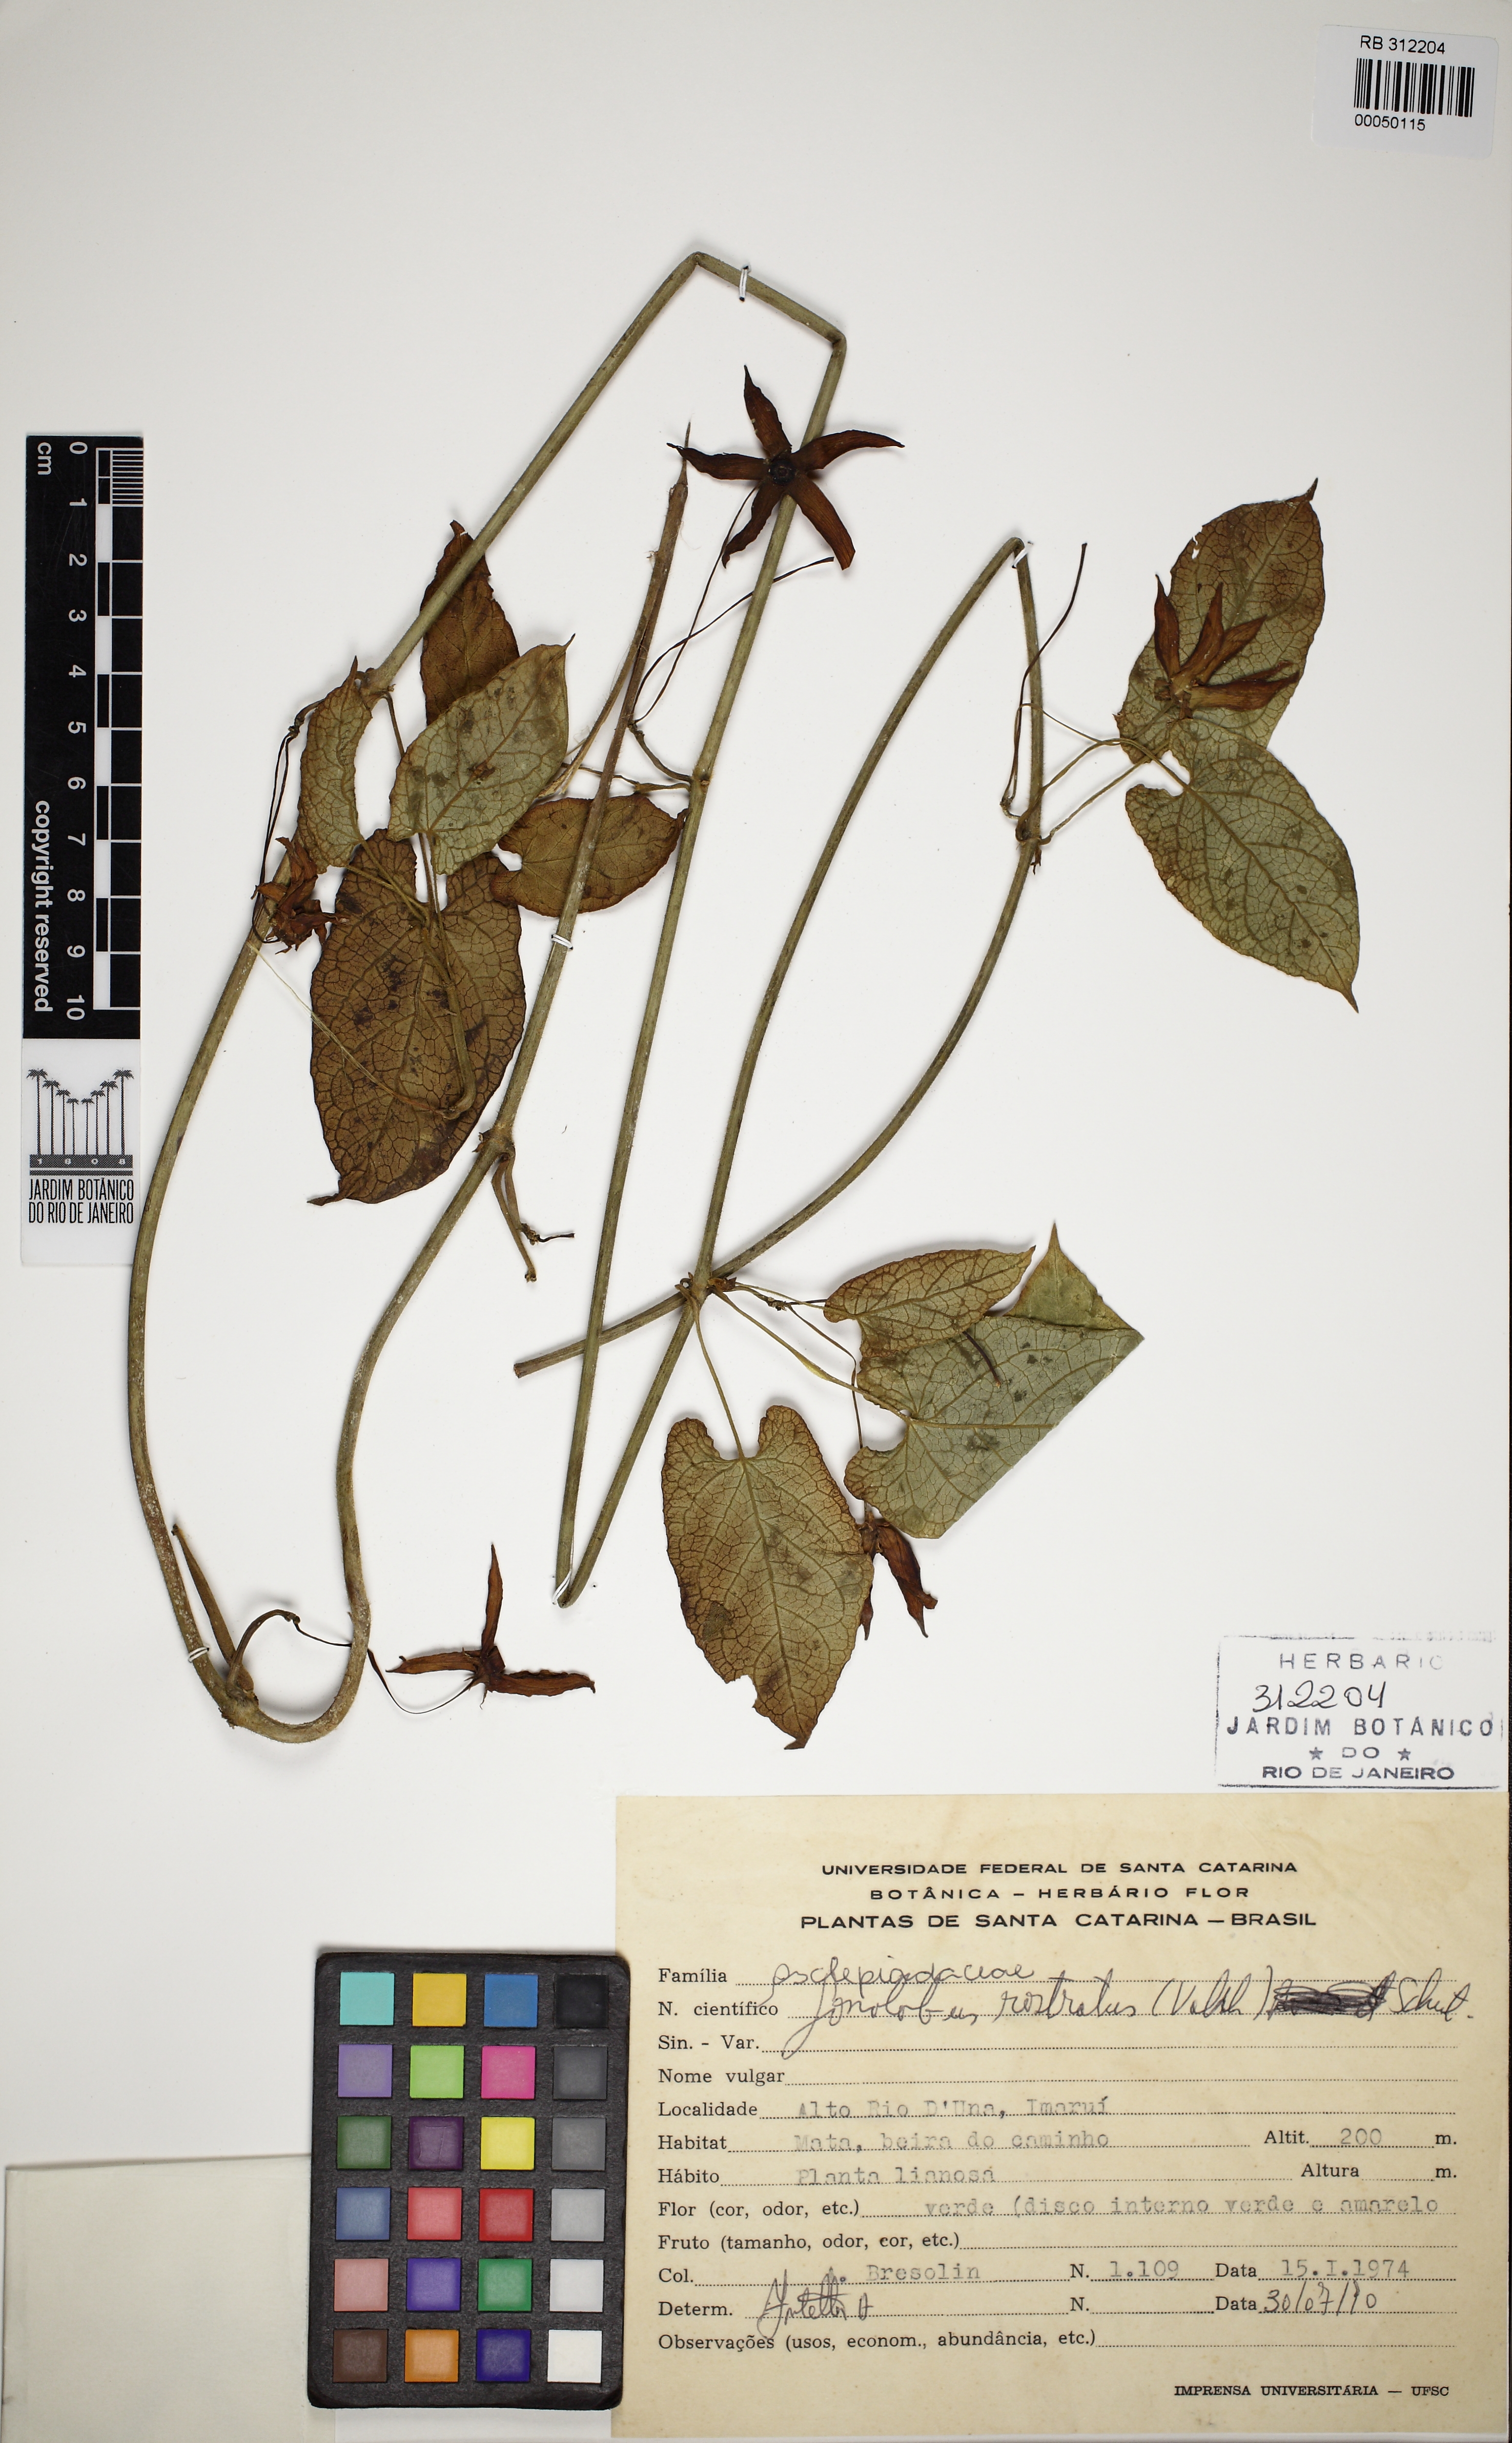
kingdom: Plantae
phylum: Tracheophyta
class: Magnoliopsida
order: Gentianales
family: Apocynaceae
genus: Gonolobus
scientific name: Gonolobus rostratus
